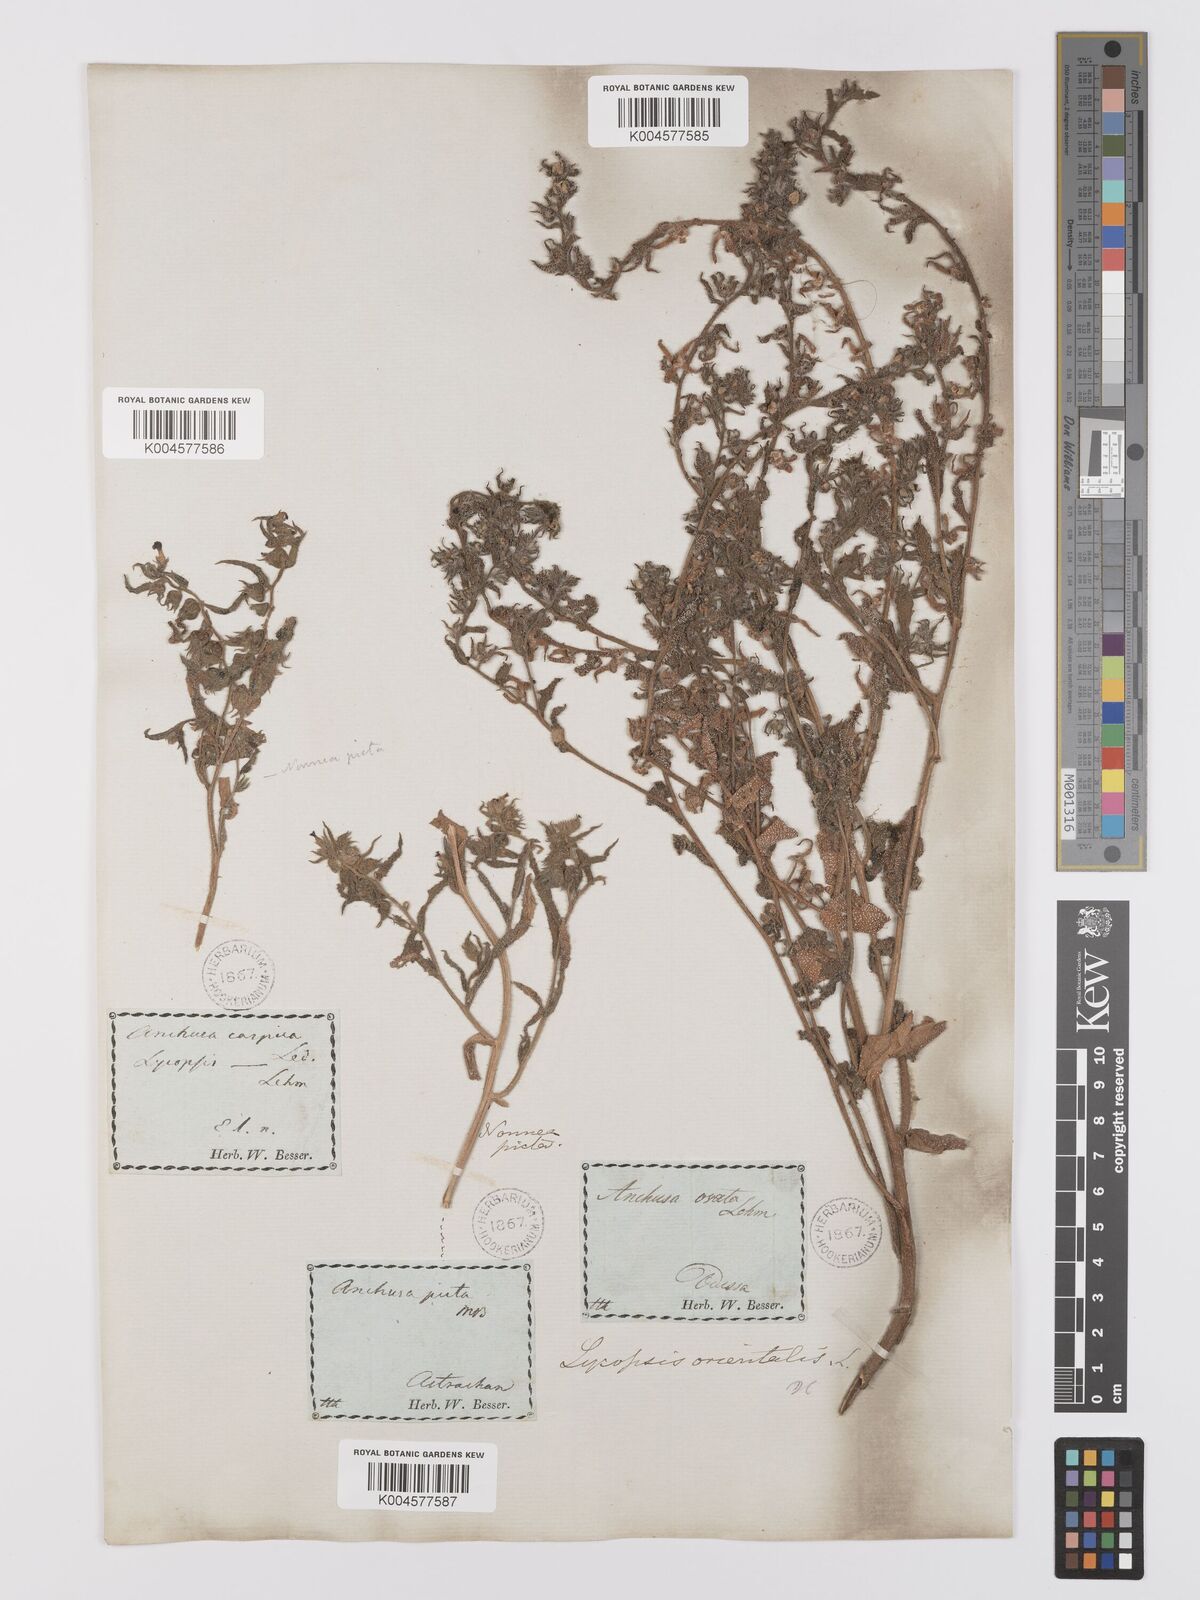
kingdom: Plantae
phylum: Tracheophyta
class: Magnoliopsida
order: Boraginales
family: Boraginaceae
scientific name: Boraginaceae
